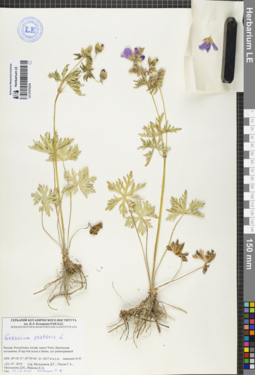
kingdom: Plantae
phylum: Tracheophyta
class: Magnoliopsida
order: Geraniales
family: Geraniaceae
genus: Geranium
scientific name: Geranium pratense
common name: Meadow crane's-bill
